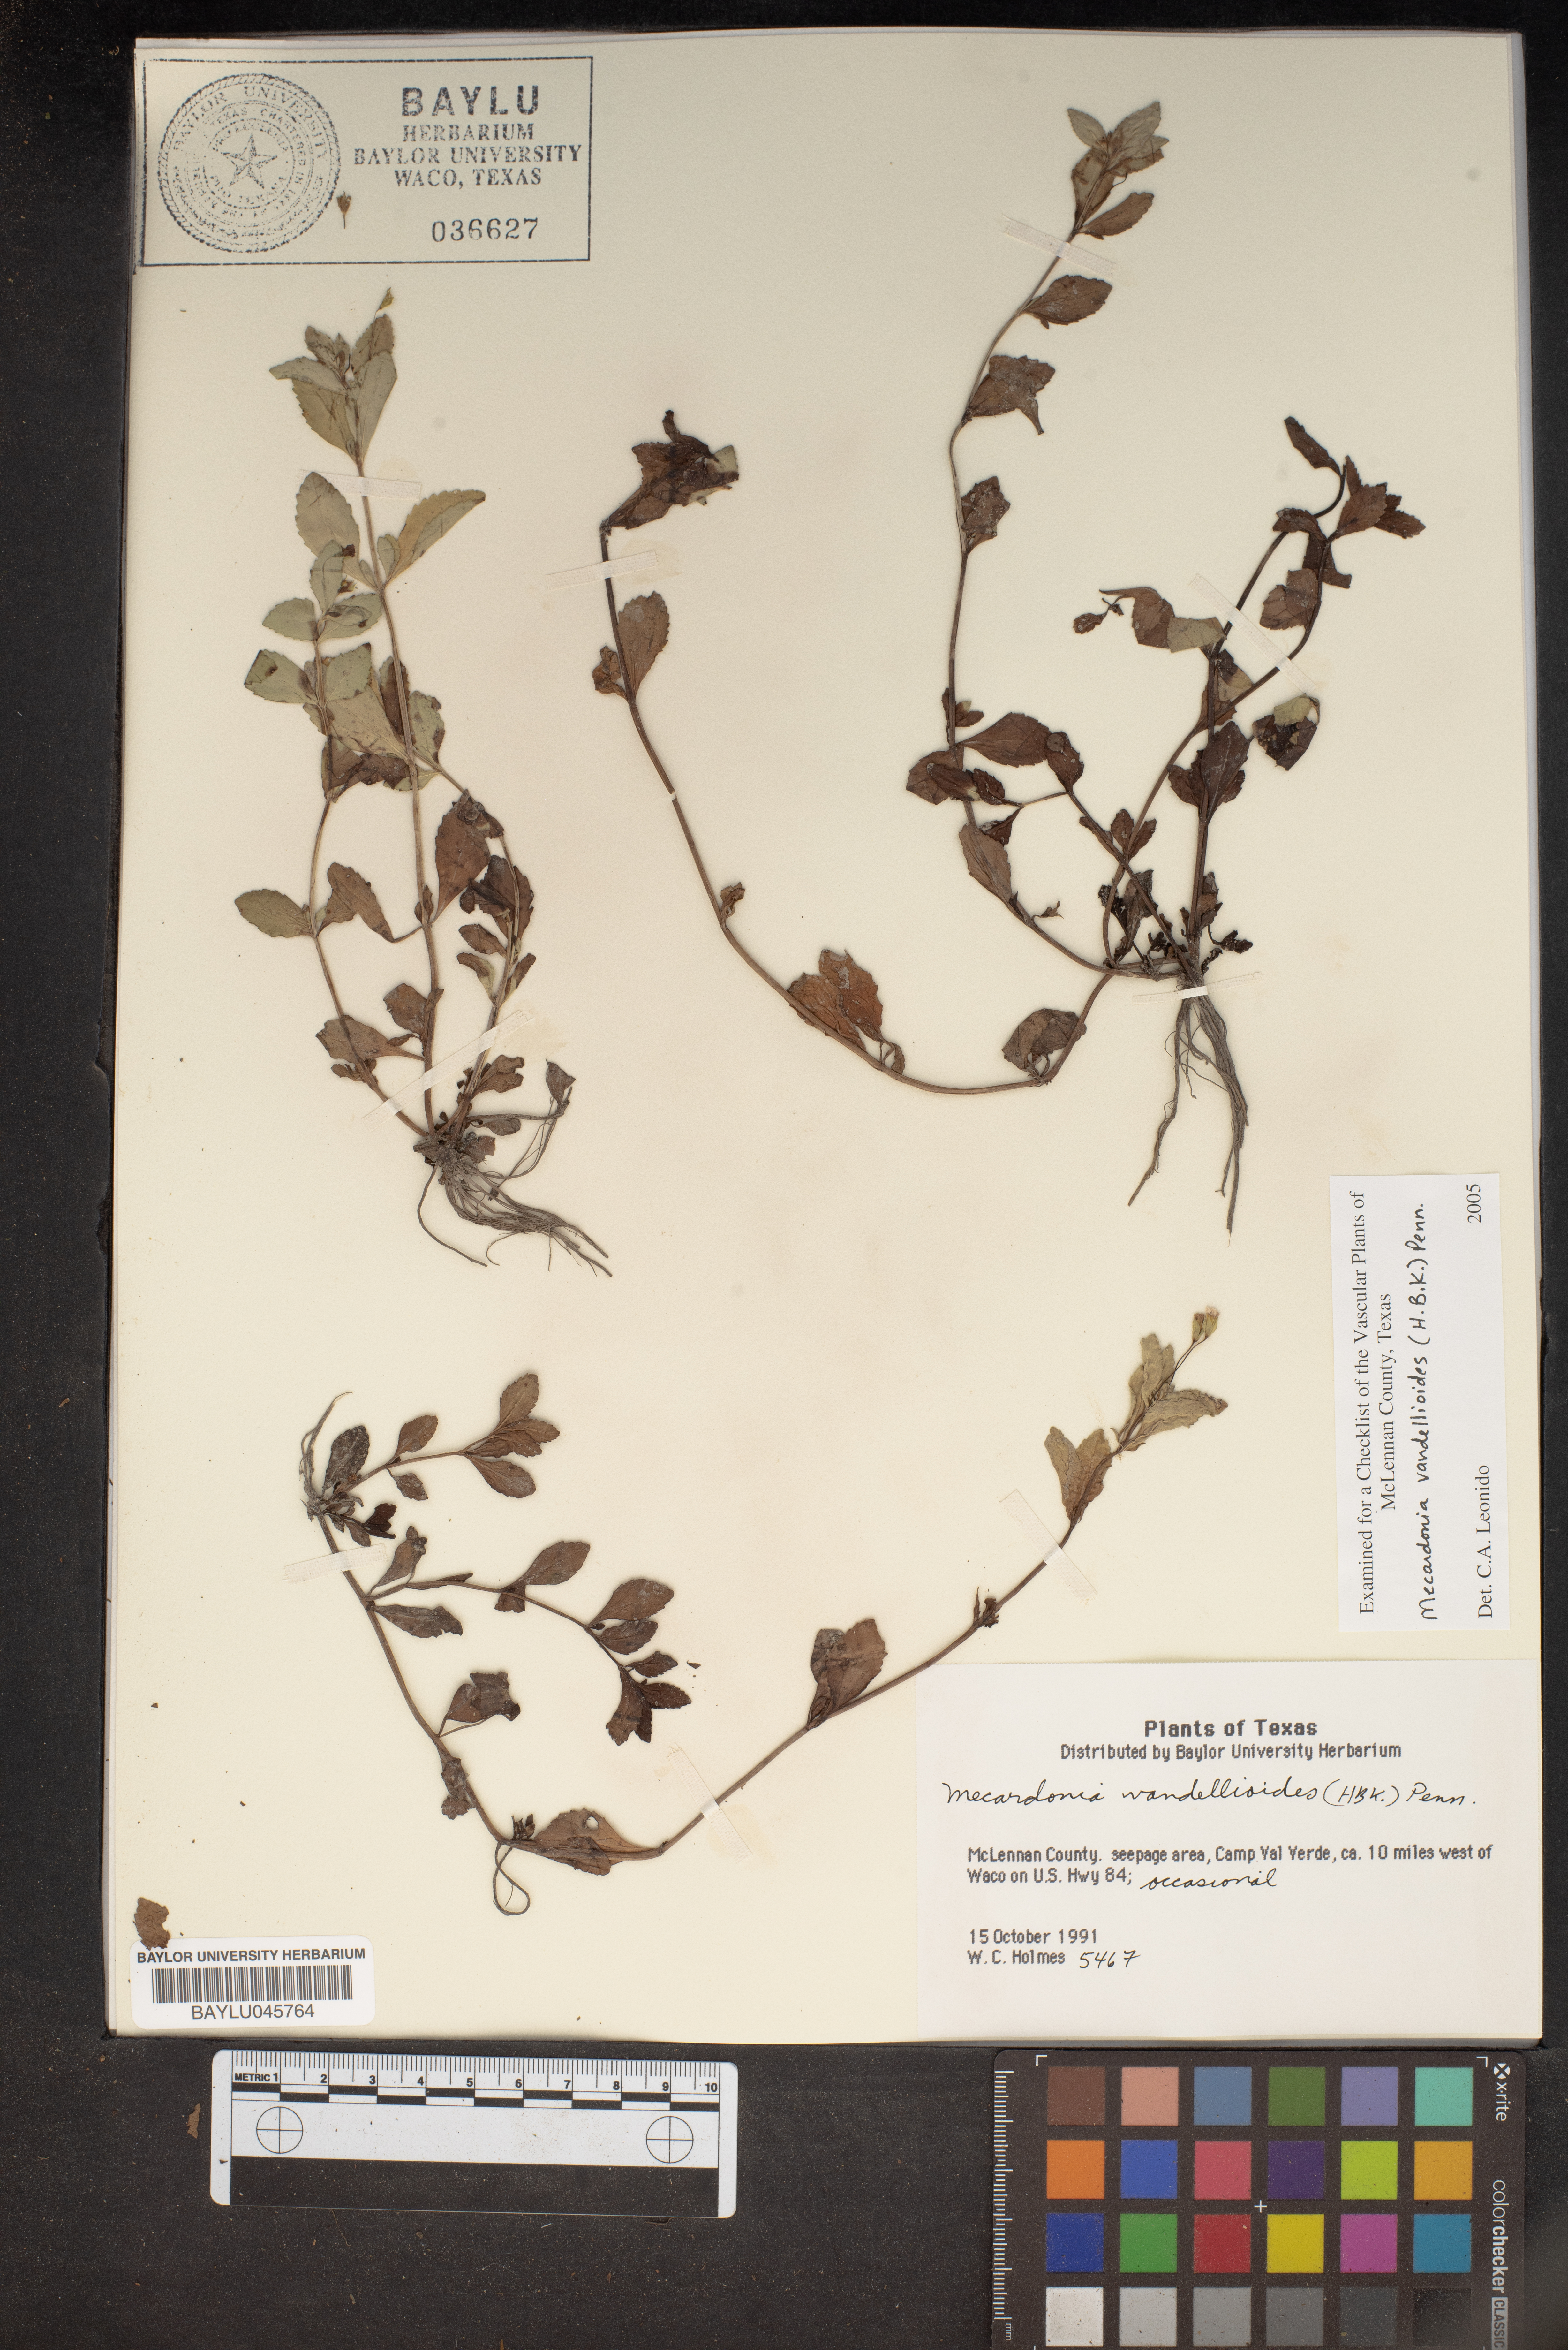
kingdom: Plantae
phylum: Tracheophyta
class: Magnoliopsida
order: Lamiales
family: Plantaginaceae
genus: Mecardonia
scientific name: Mecardonia procumbens
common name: Baby jump-up
